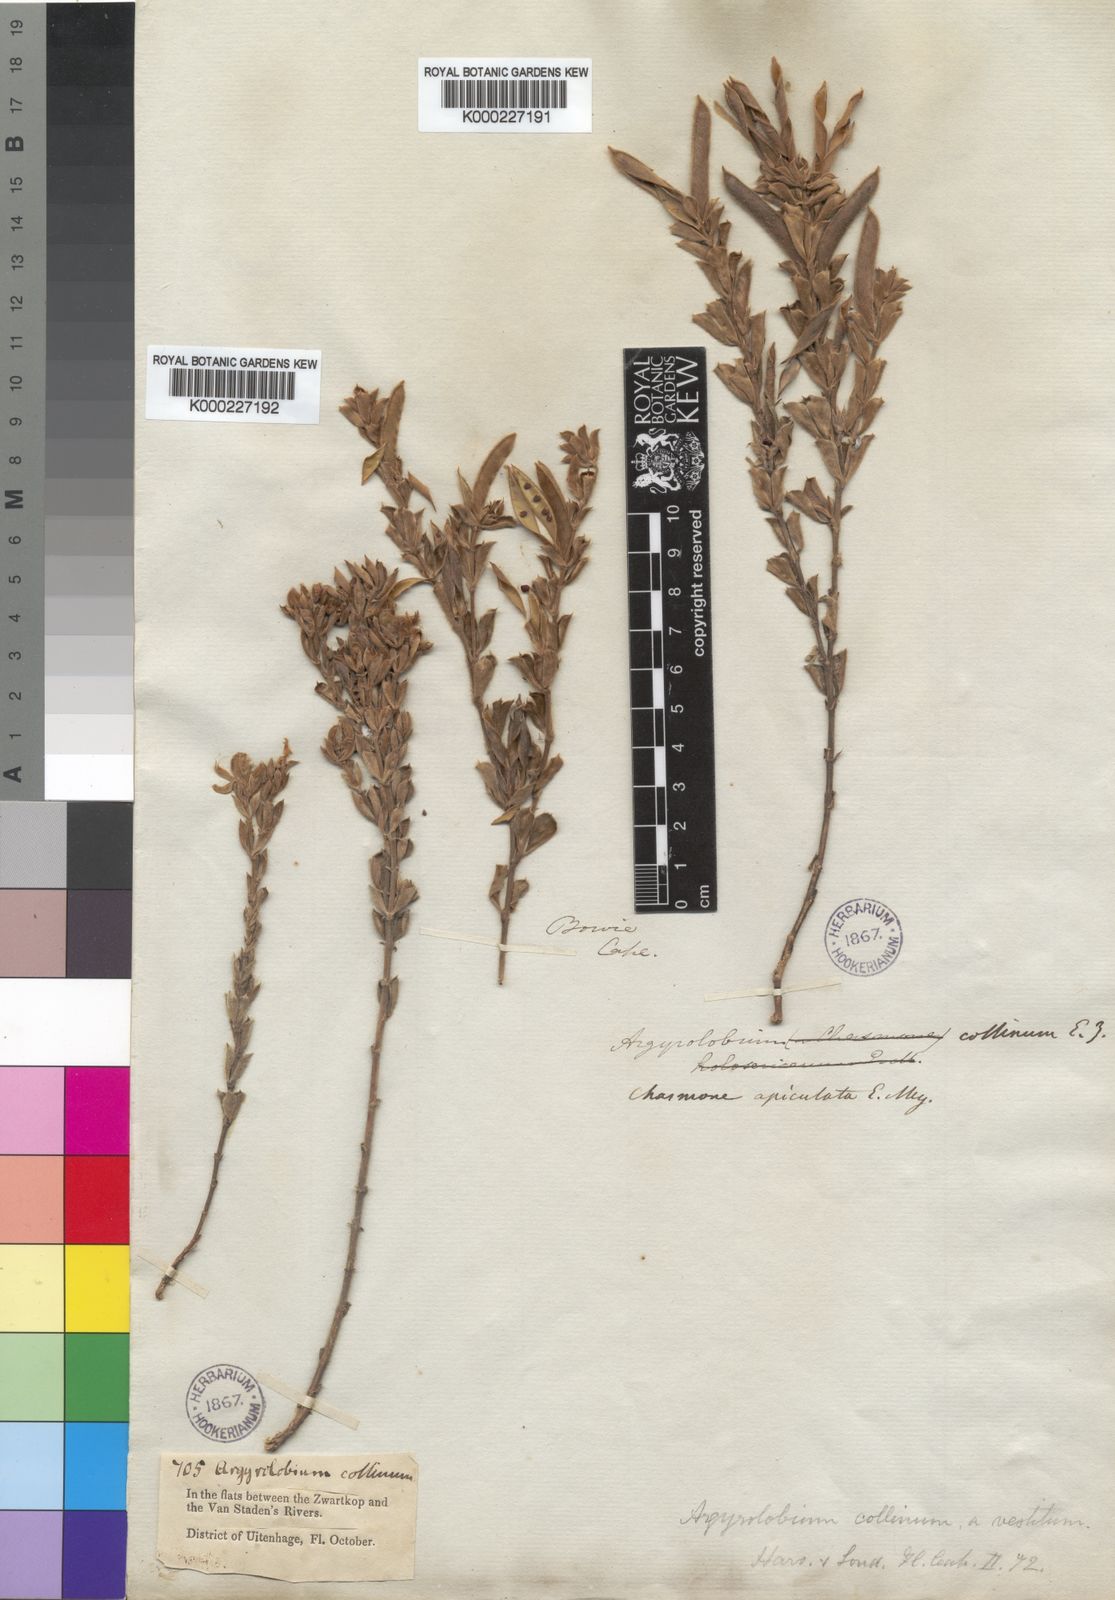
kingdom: Plantae
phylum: Tracheophyta
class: Magnoliopsida
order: Fabales
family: Fabaceae
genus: Argyrolobium
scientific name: Argyrolobium collinum
